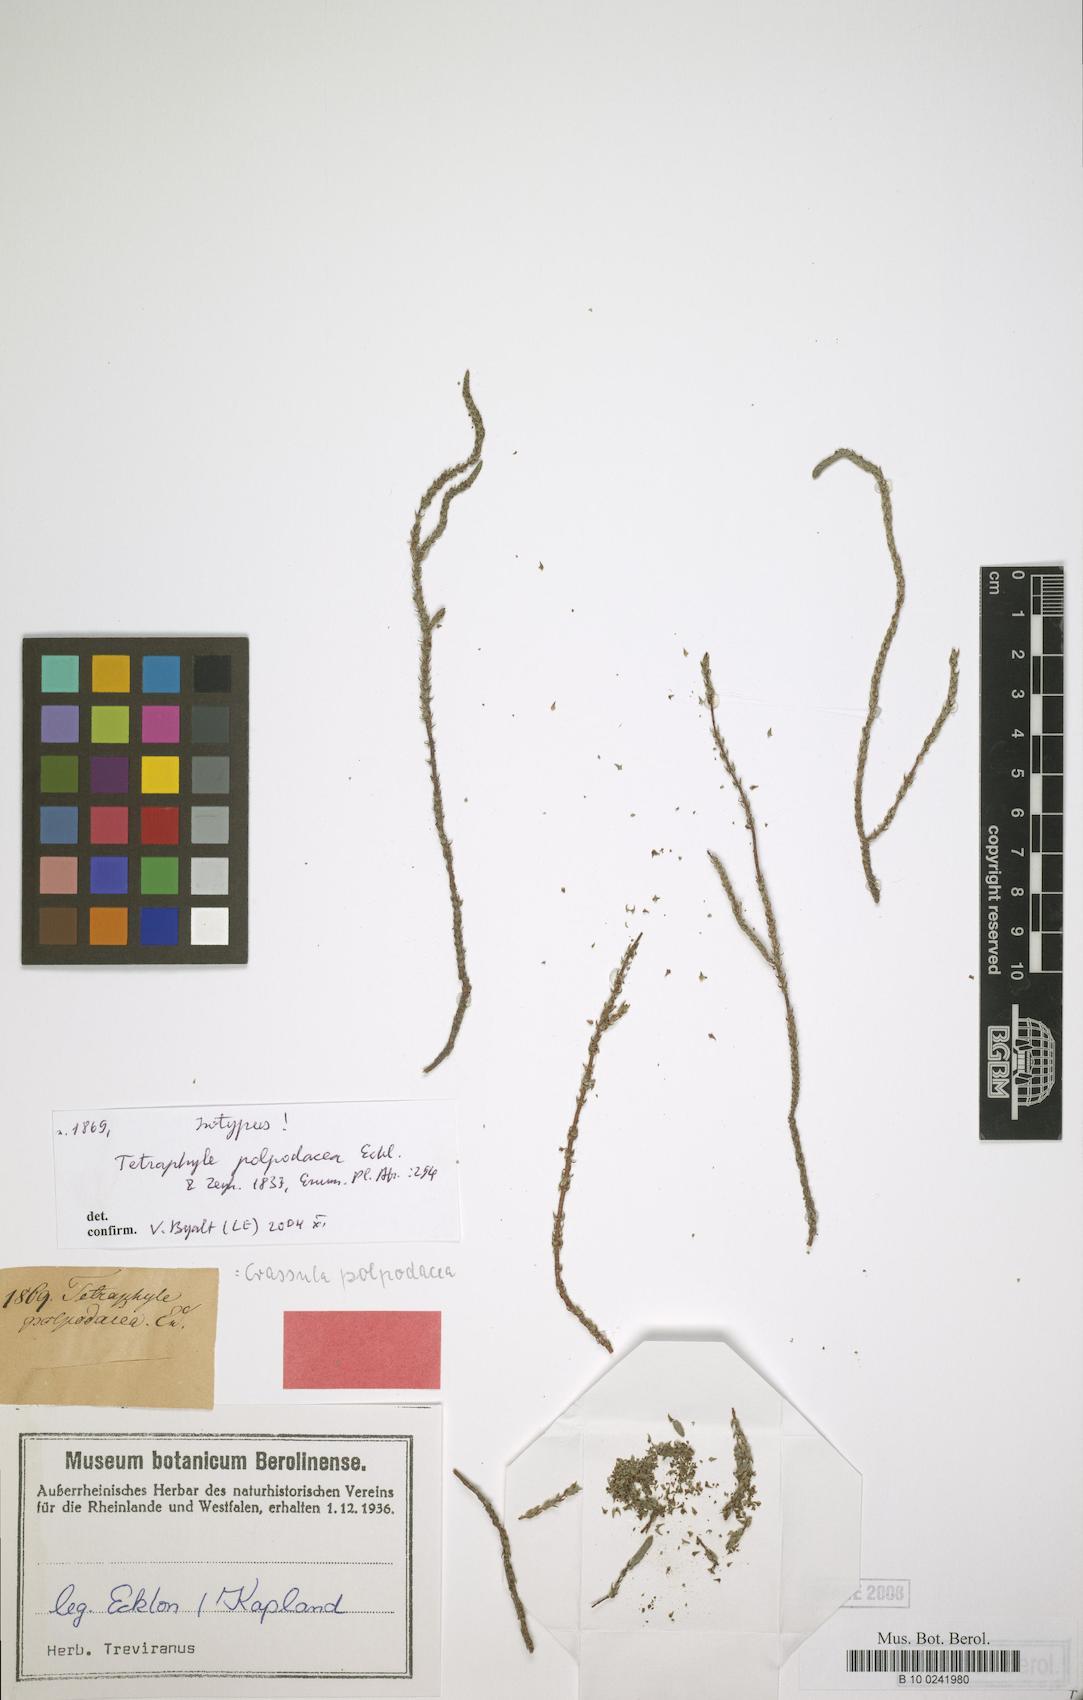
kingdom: Plantae
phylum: Tracheophyta
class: Magnoliopsida
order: Saxifragales
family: Crassulaceae
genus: Crassula
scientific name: Crassula muscosa
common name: Toy-cypress
